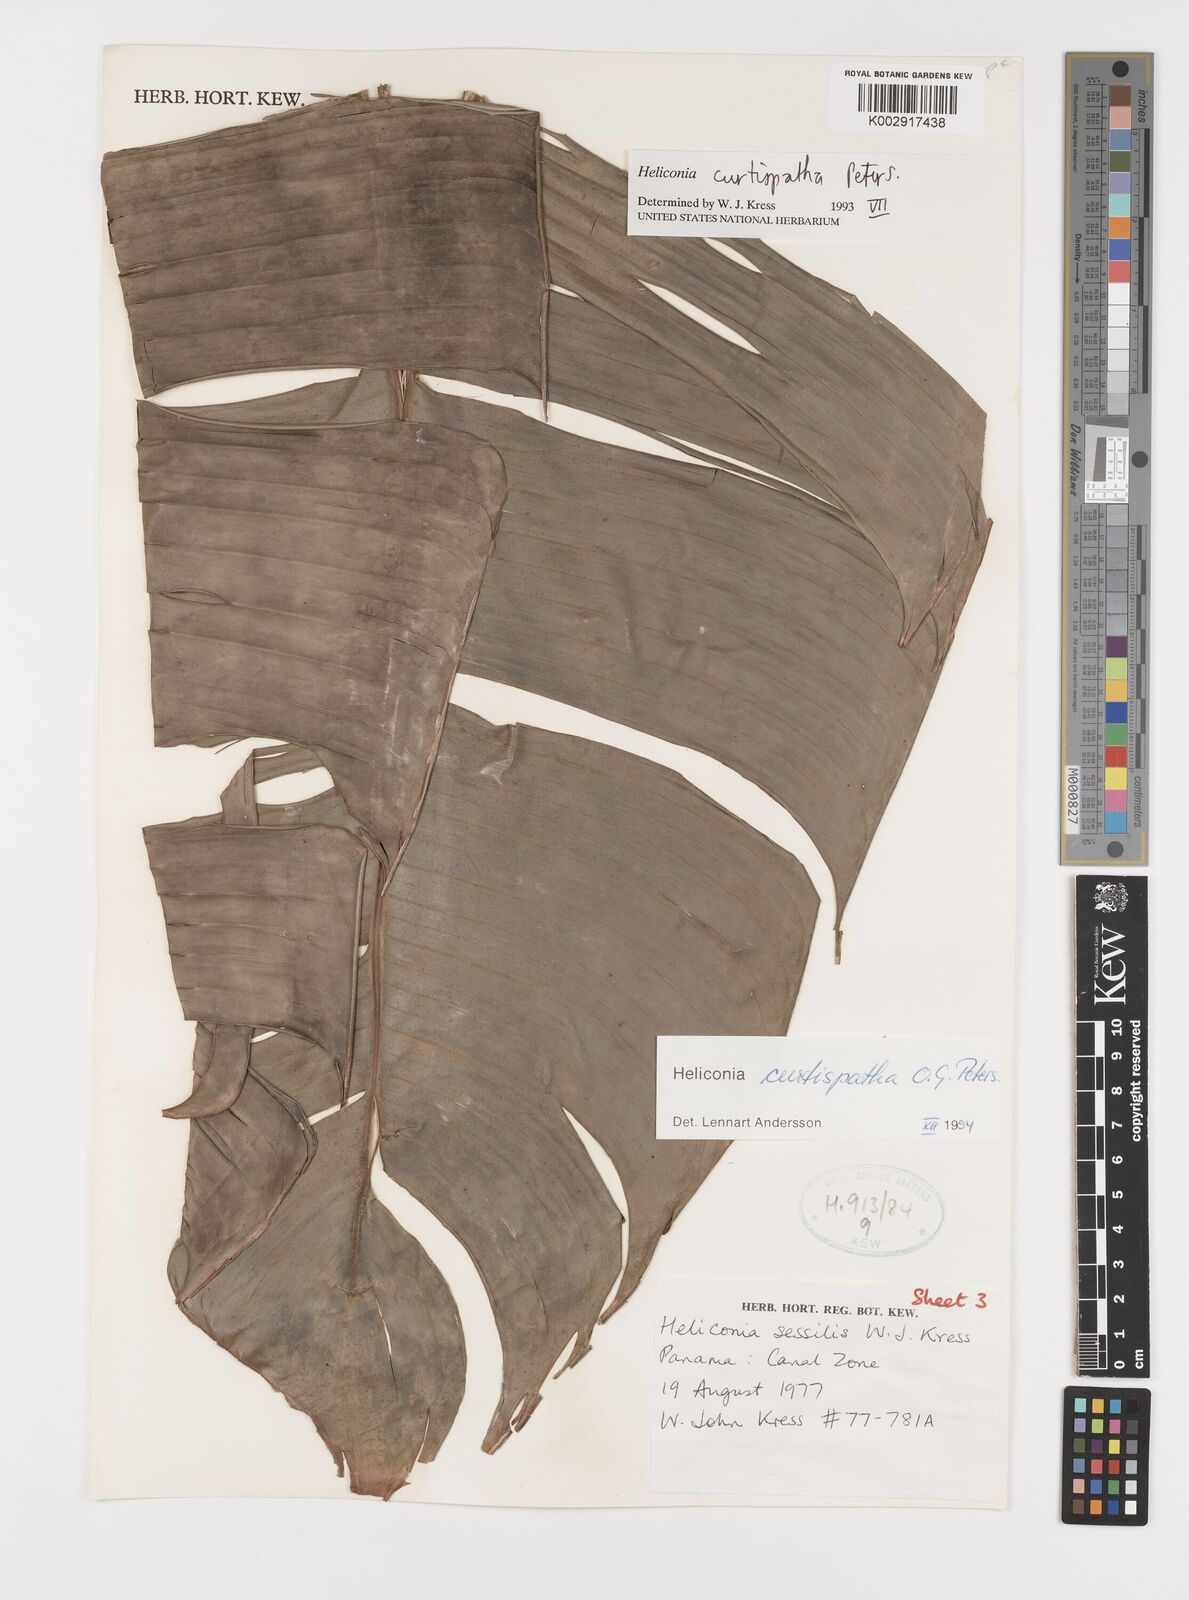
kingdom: Plantae
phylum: Tracheophyta
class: Liliopsida
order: Zingiberales
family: Heliconiaceae
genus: Heliconia
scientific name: Heliconia curtispatha
